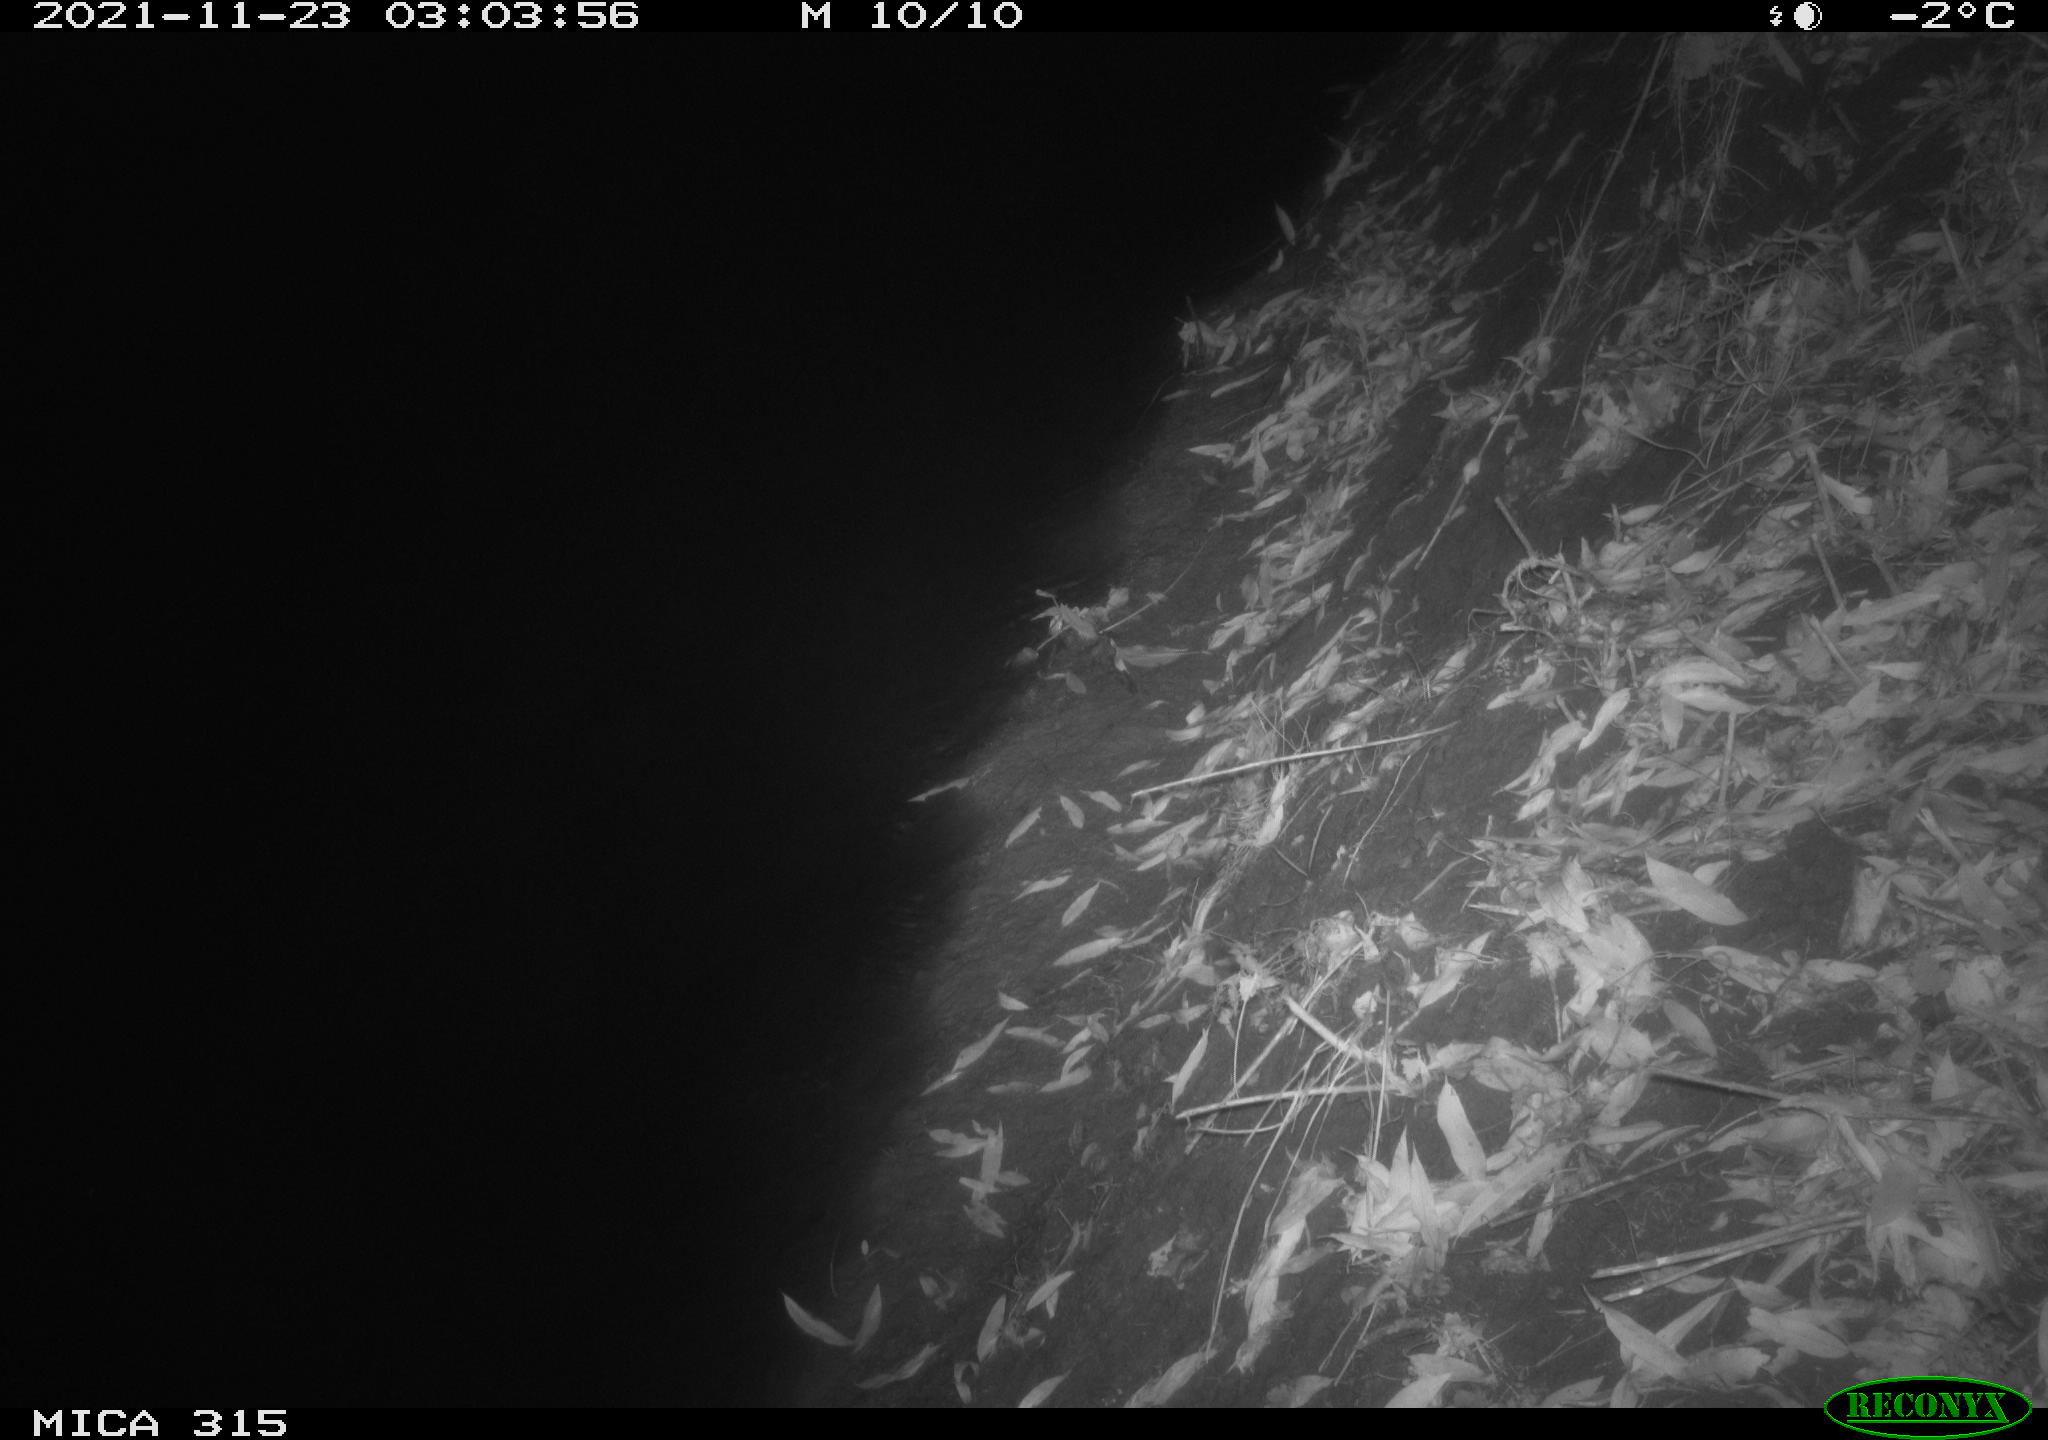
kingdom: Animalia
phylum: Chordata
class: Aves
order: Anseriformes
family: Anatidae
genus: Anas
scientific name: Anas platyrhynchos
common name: Mallard
